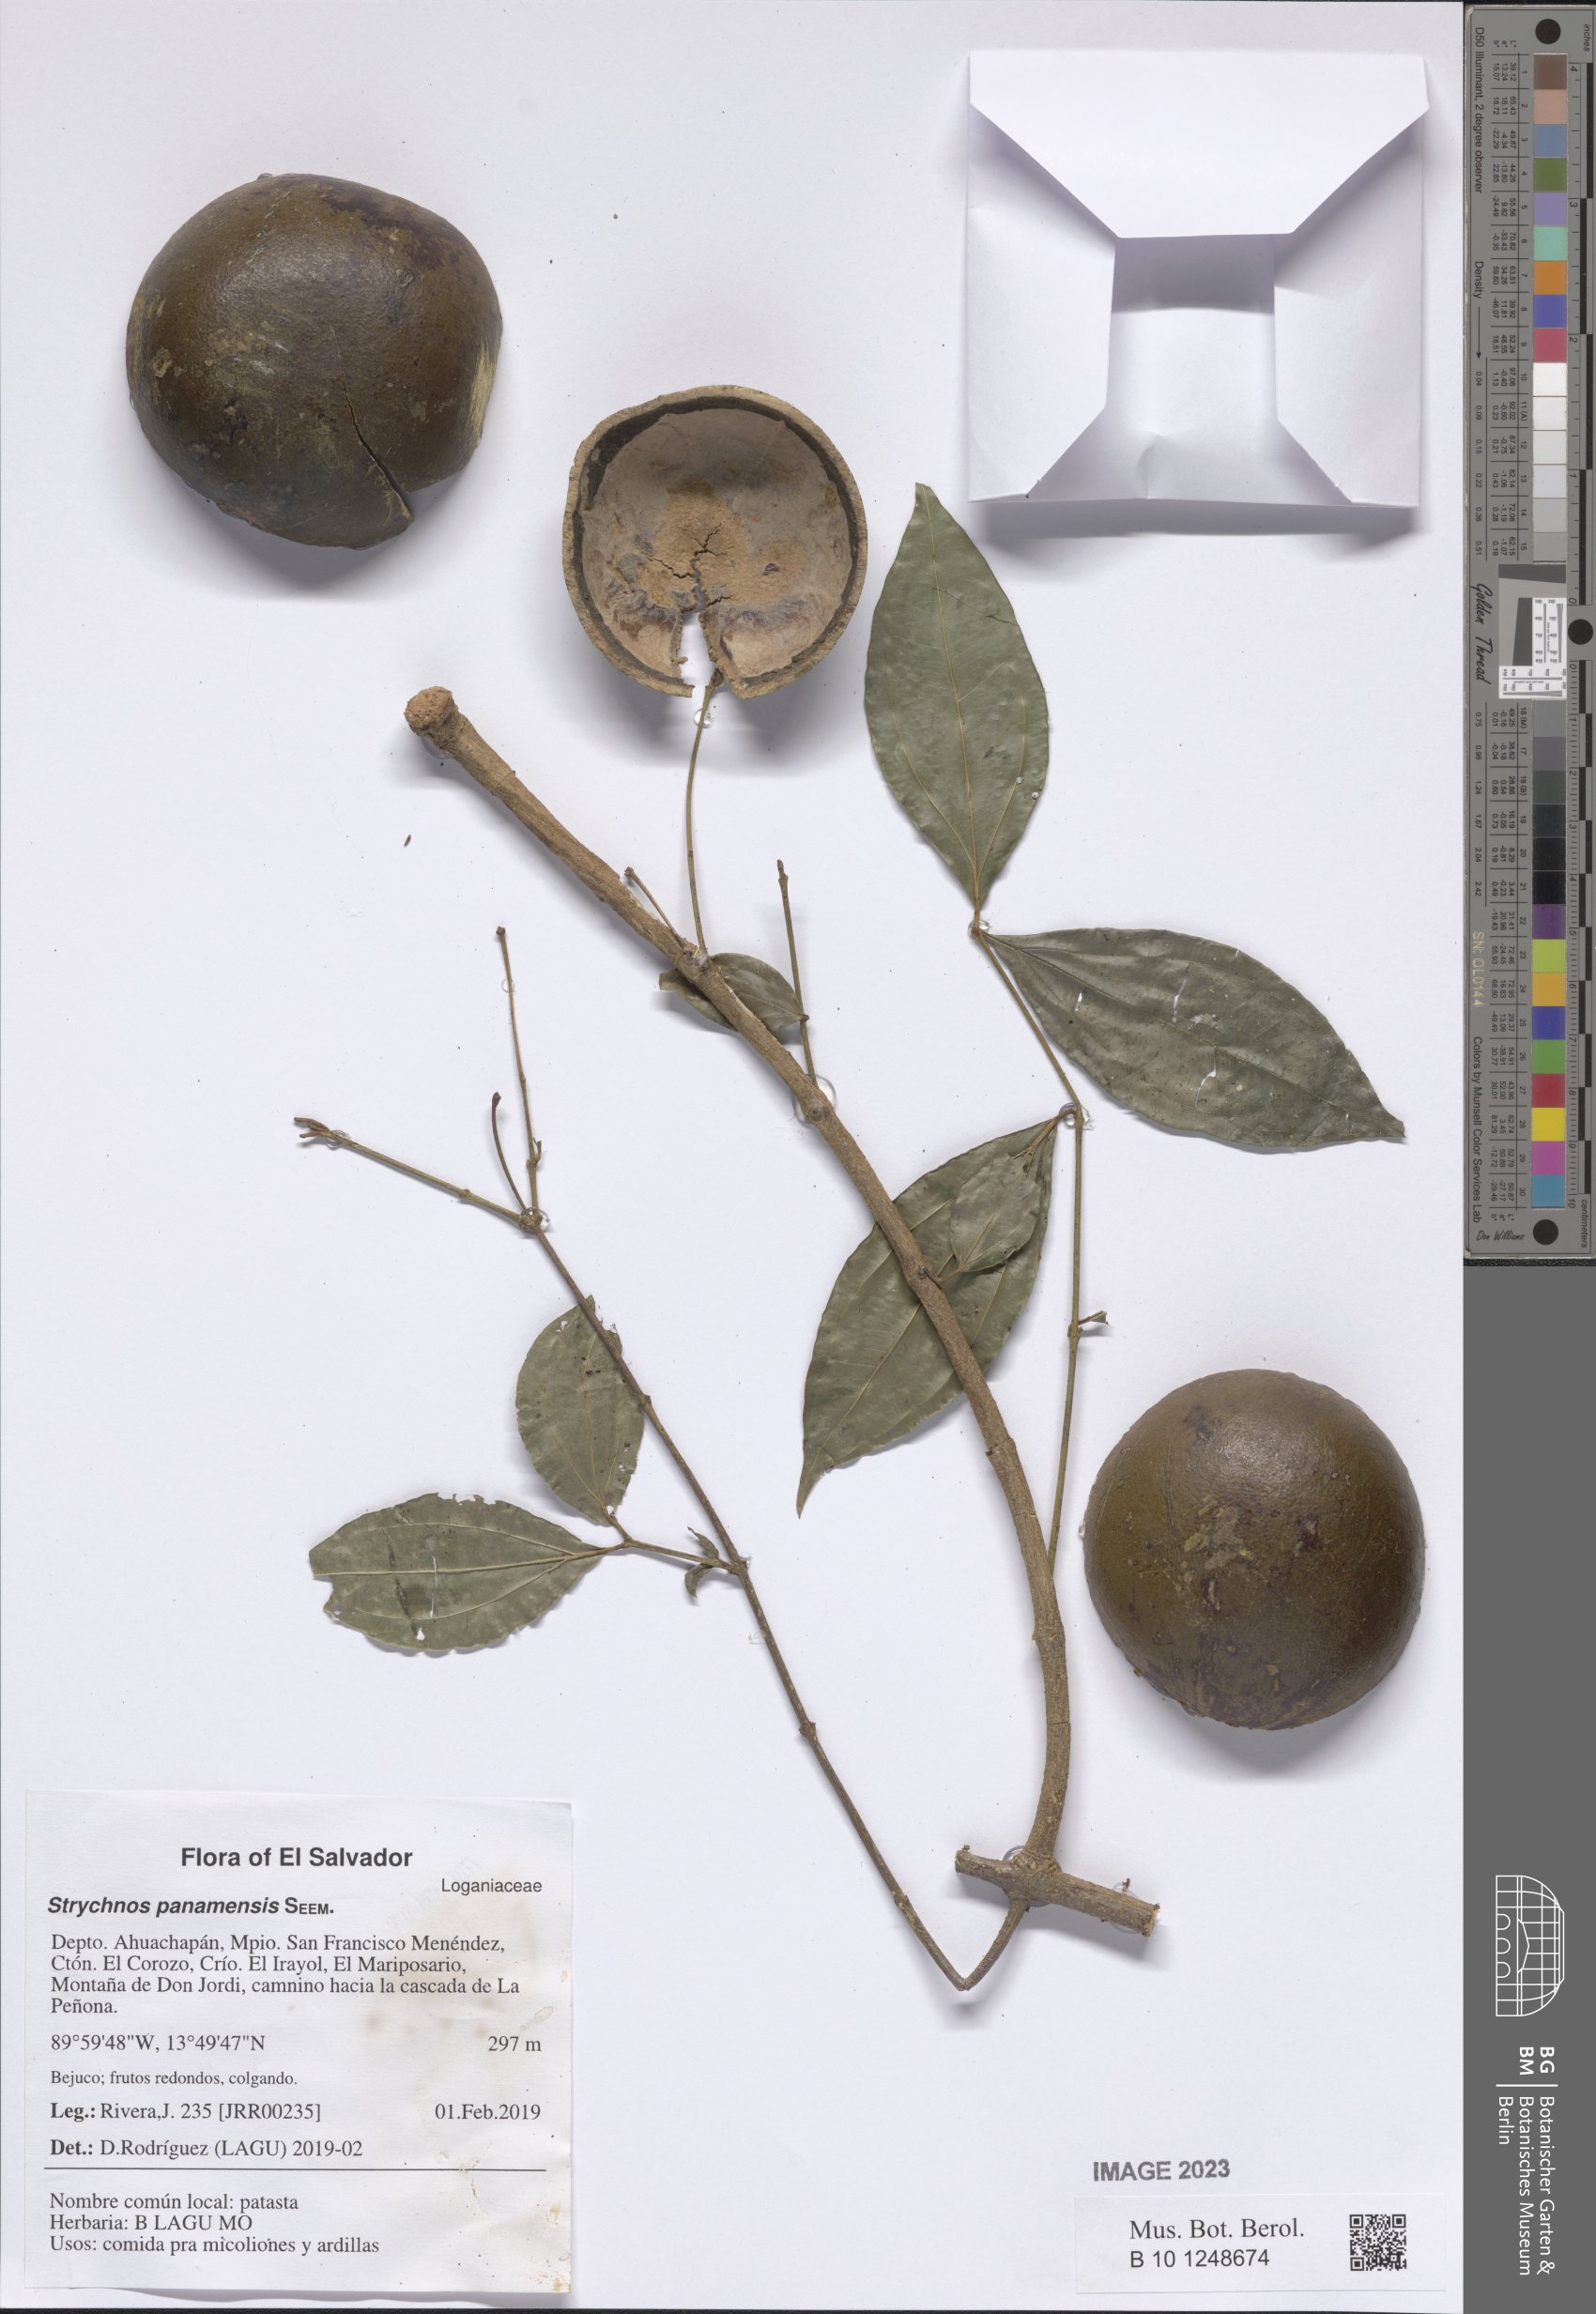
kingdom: Plantae
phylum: Tracheophyta
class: Magnoliopsida
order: Gentianales
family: Loganiaceae
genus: Strychnos
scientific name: Strychnos panamensis
